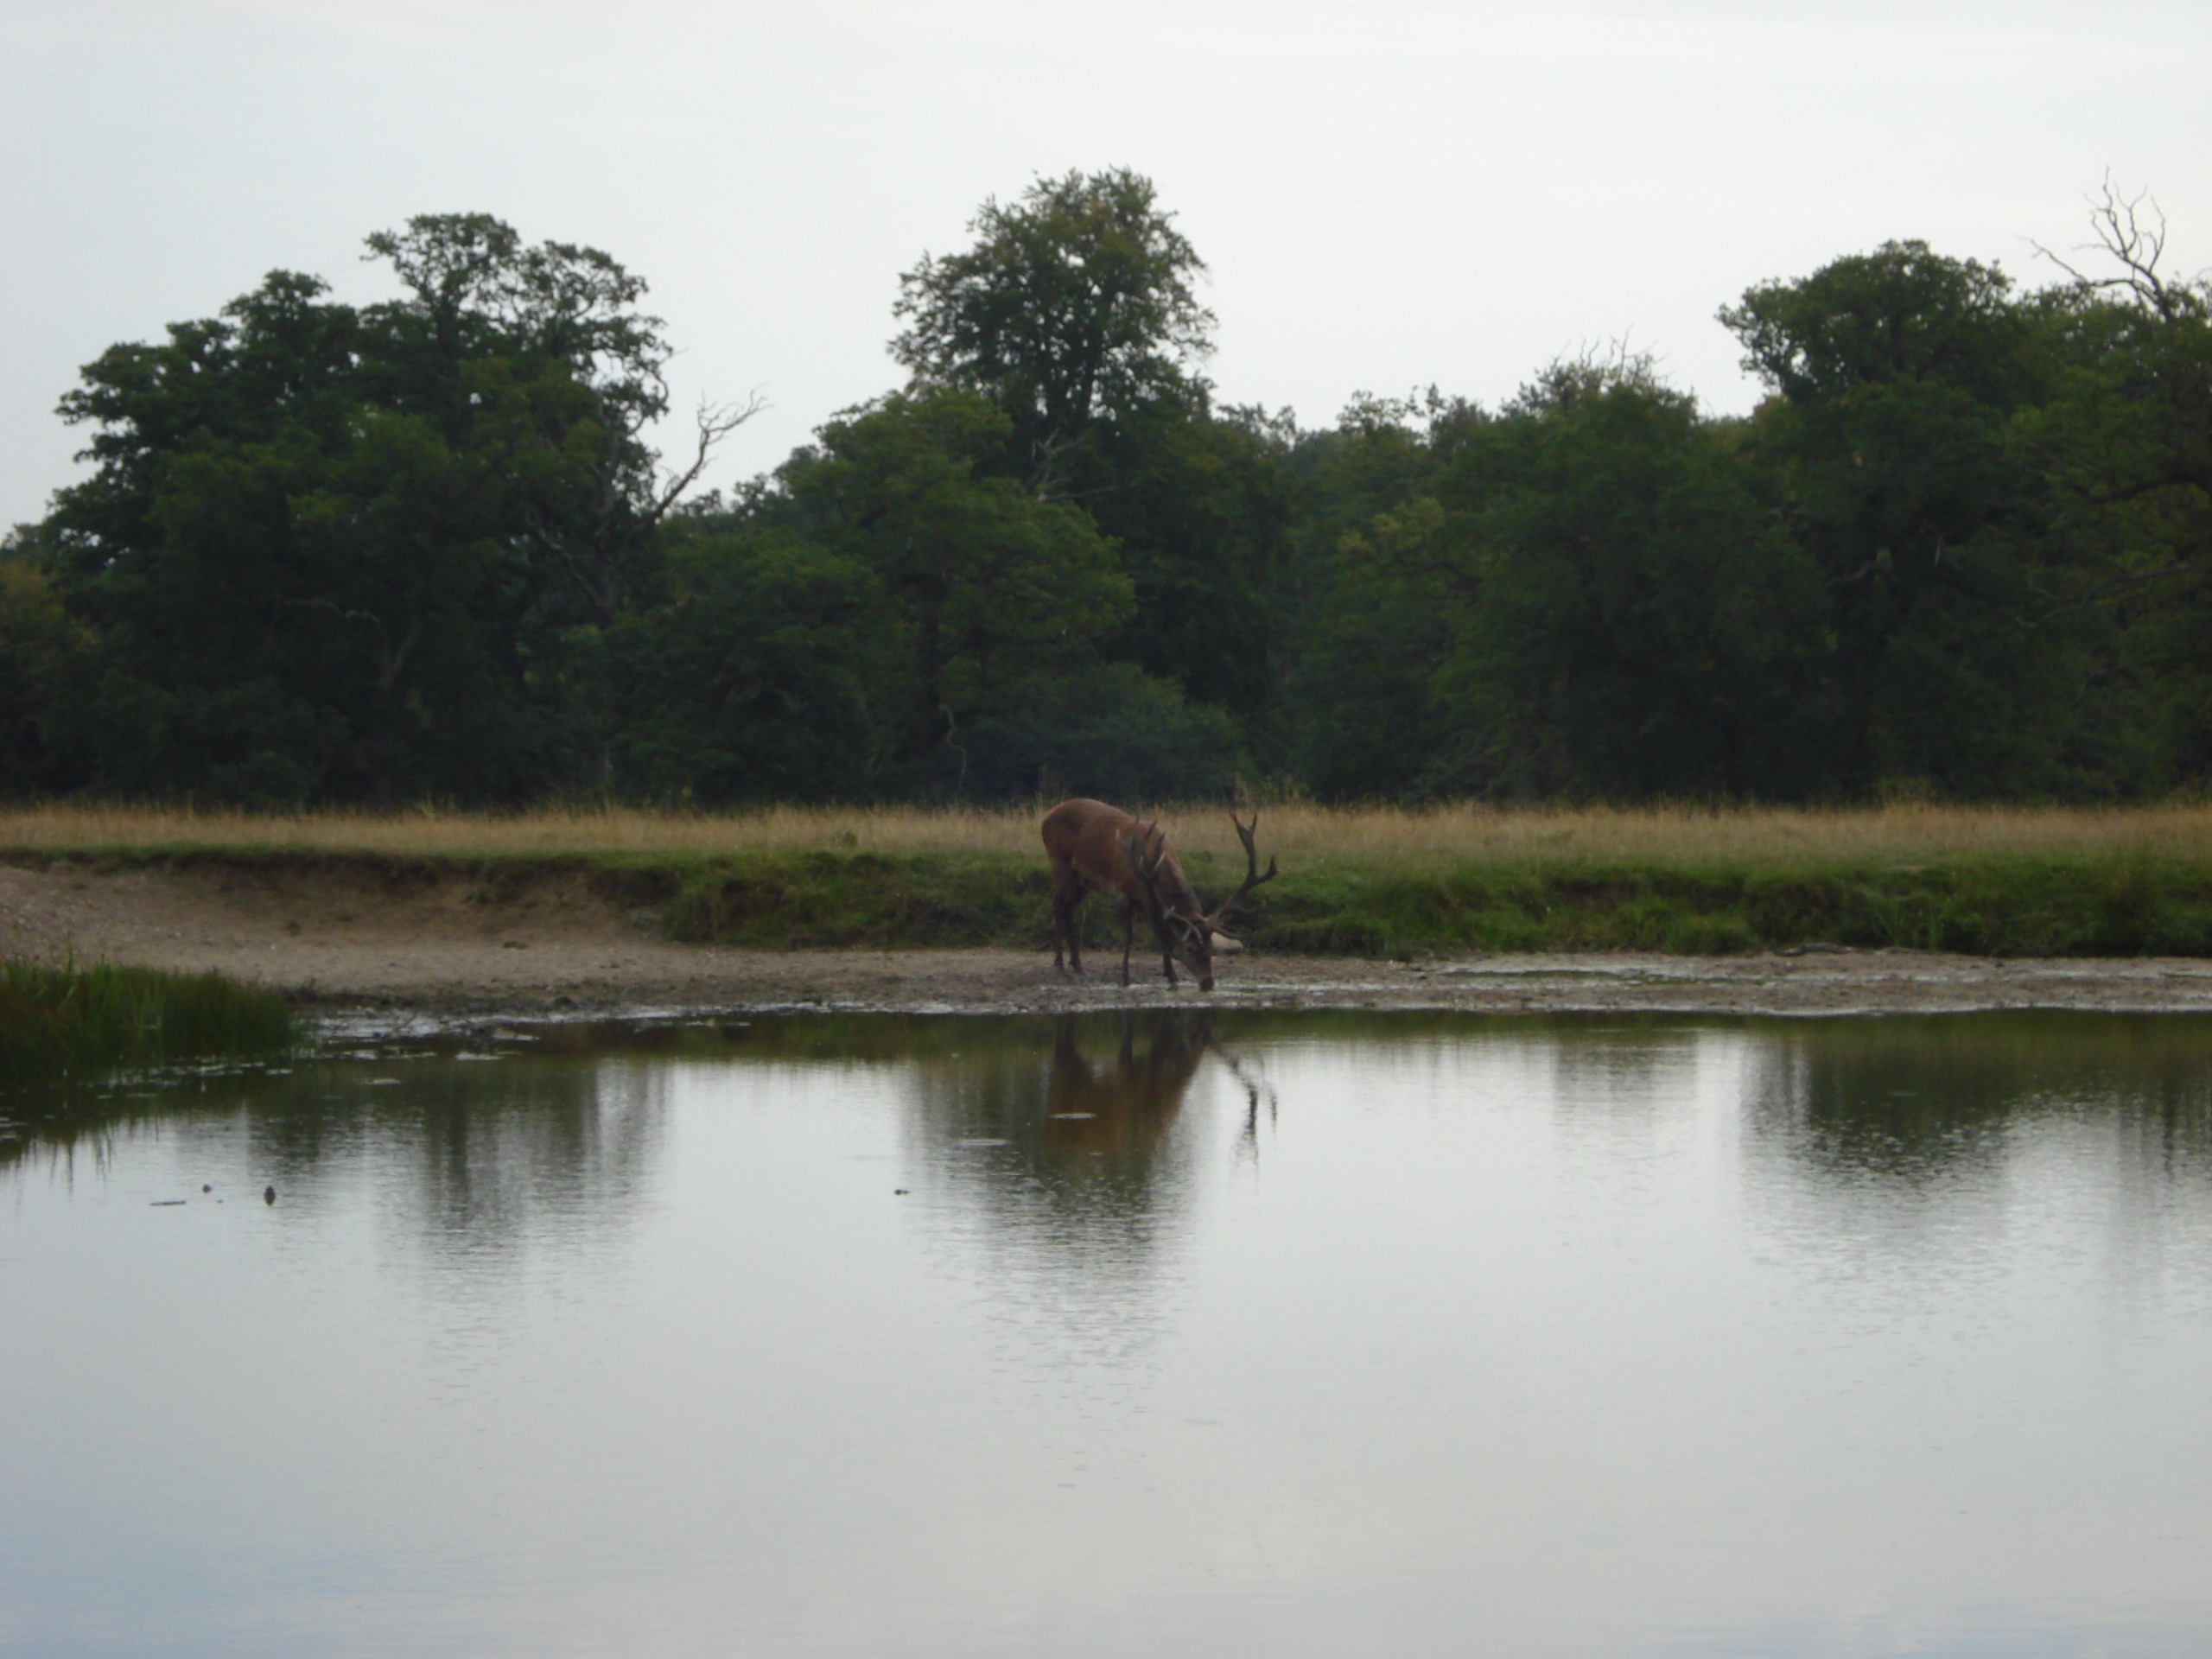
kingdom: Animalia
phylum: Chordata
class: Mammalia
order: Artiodactyla
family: Cervidae
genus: Cervus
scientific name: Cervus elaphus
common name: Krondyr
